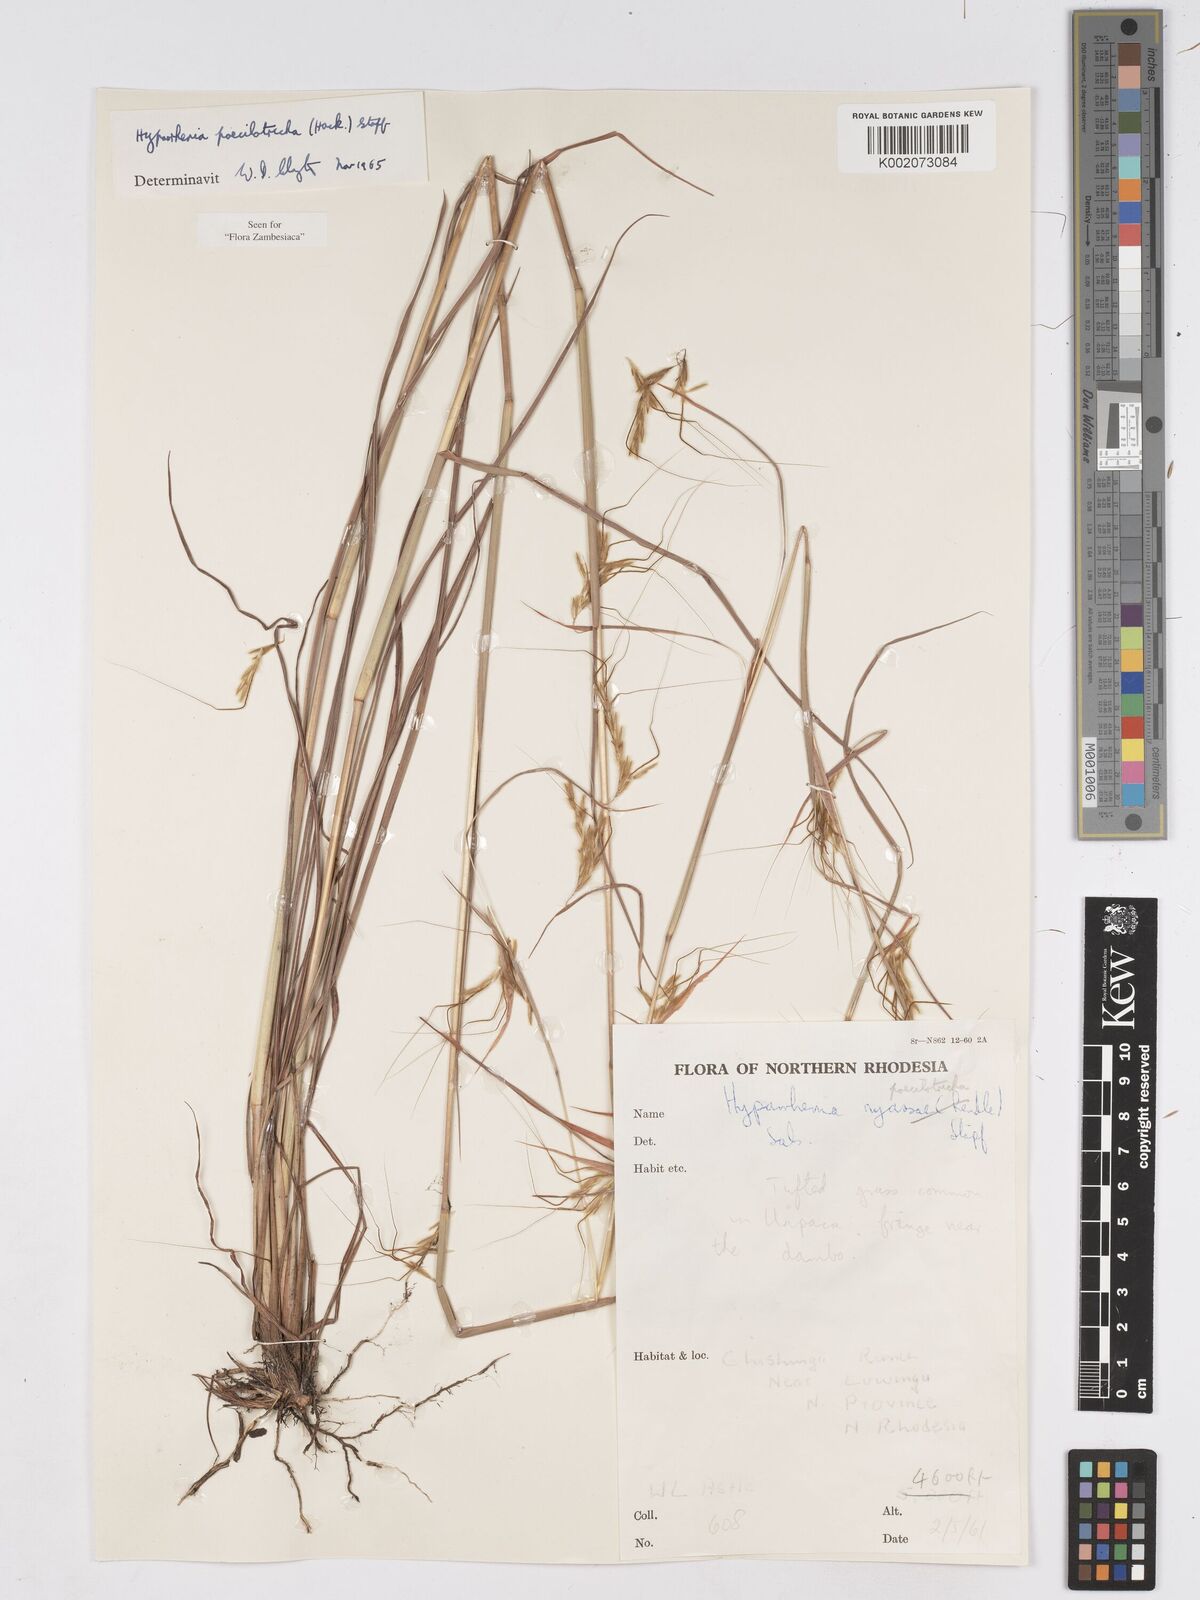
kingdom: Plantae
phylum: Tracheophyta
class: Liliopsida
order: Poales
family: Poaceae
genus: Hyparrhenia
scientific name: Hyparrhenia poecilotricha
